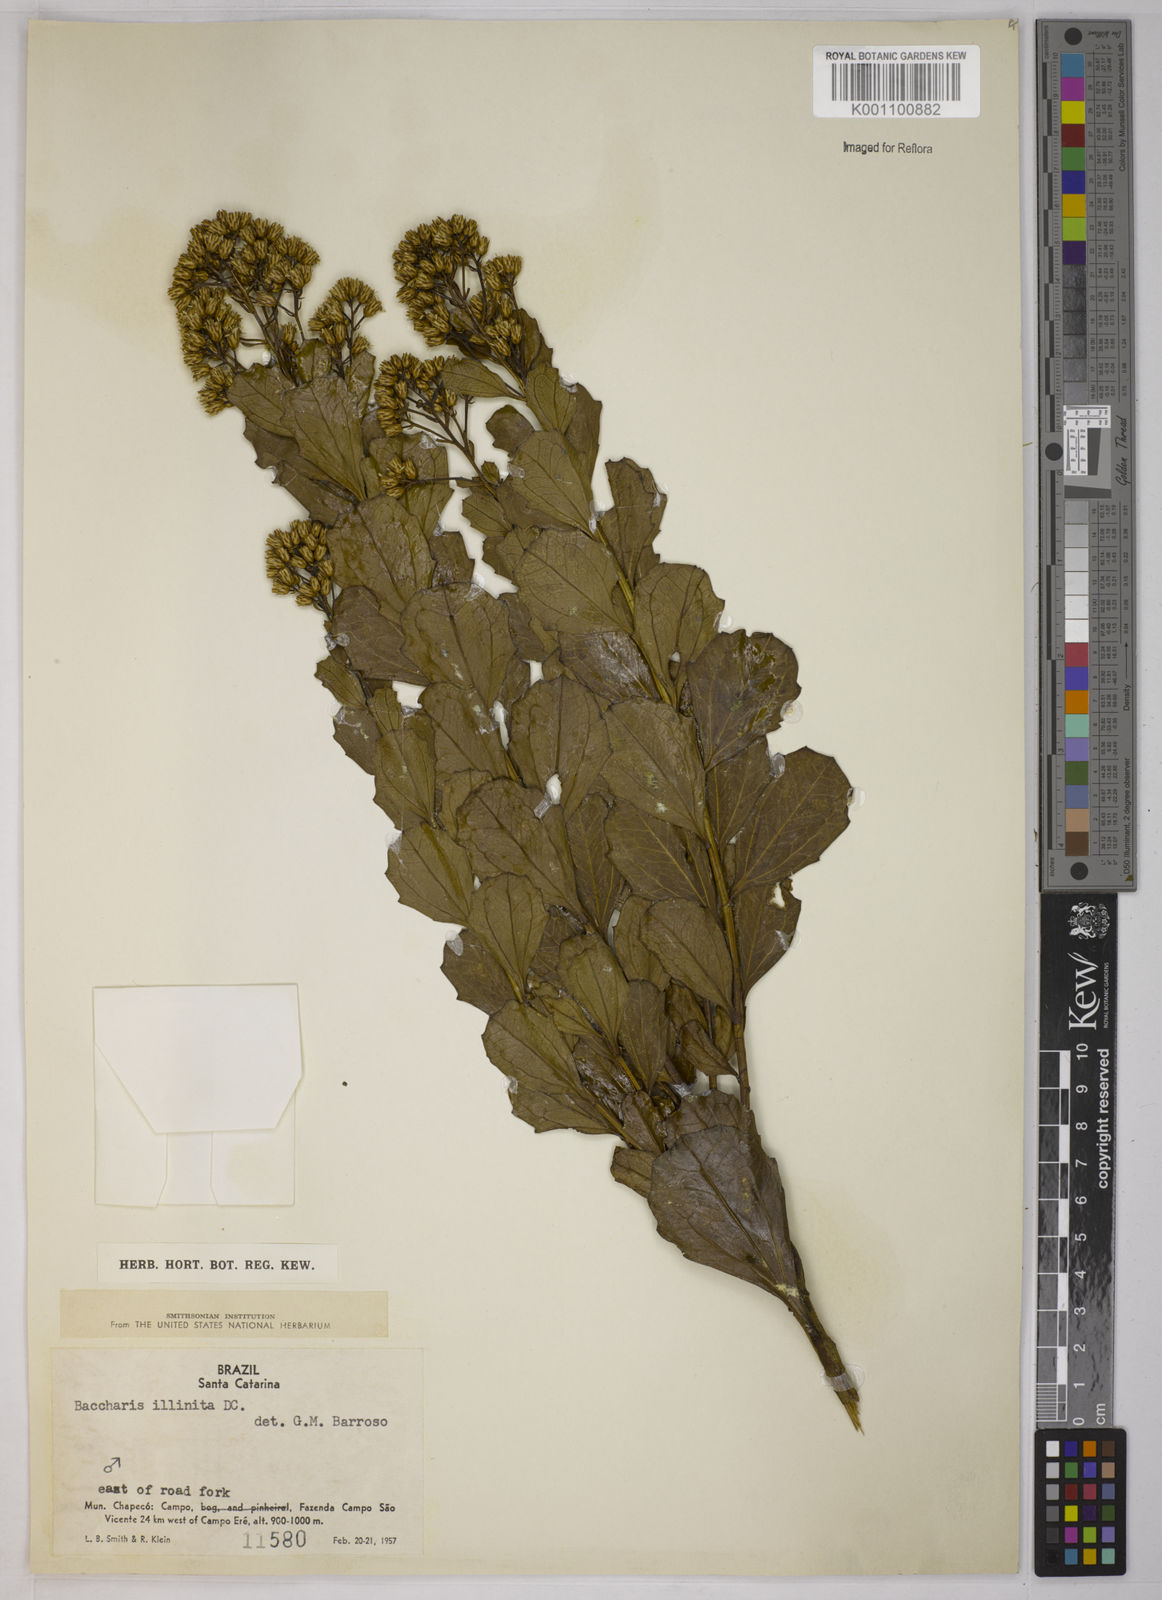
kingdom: Plantae
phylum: Tracheophyta
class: Magnoliopsida
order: Asterales
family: Asteraceae
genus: Baccharis
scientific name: Baccharis tridentata
